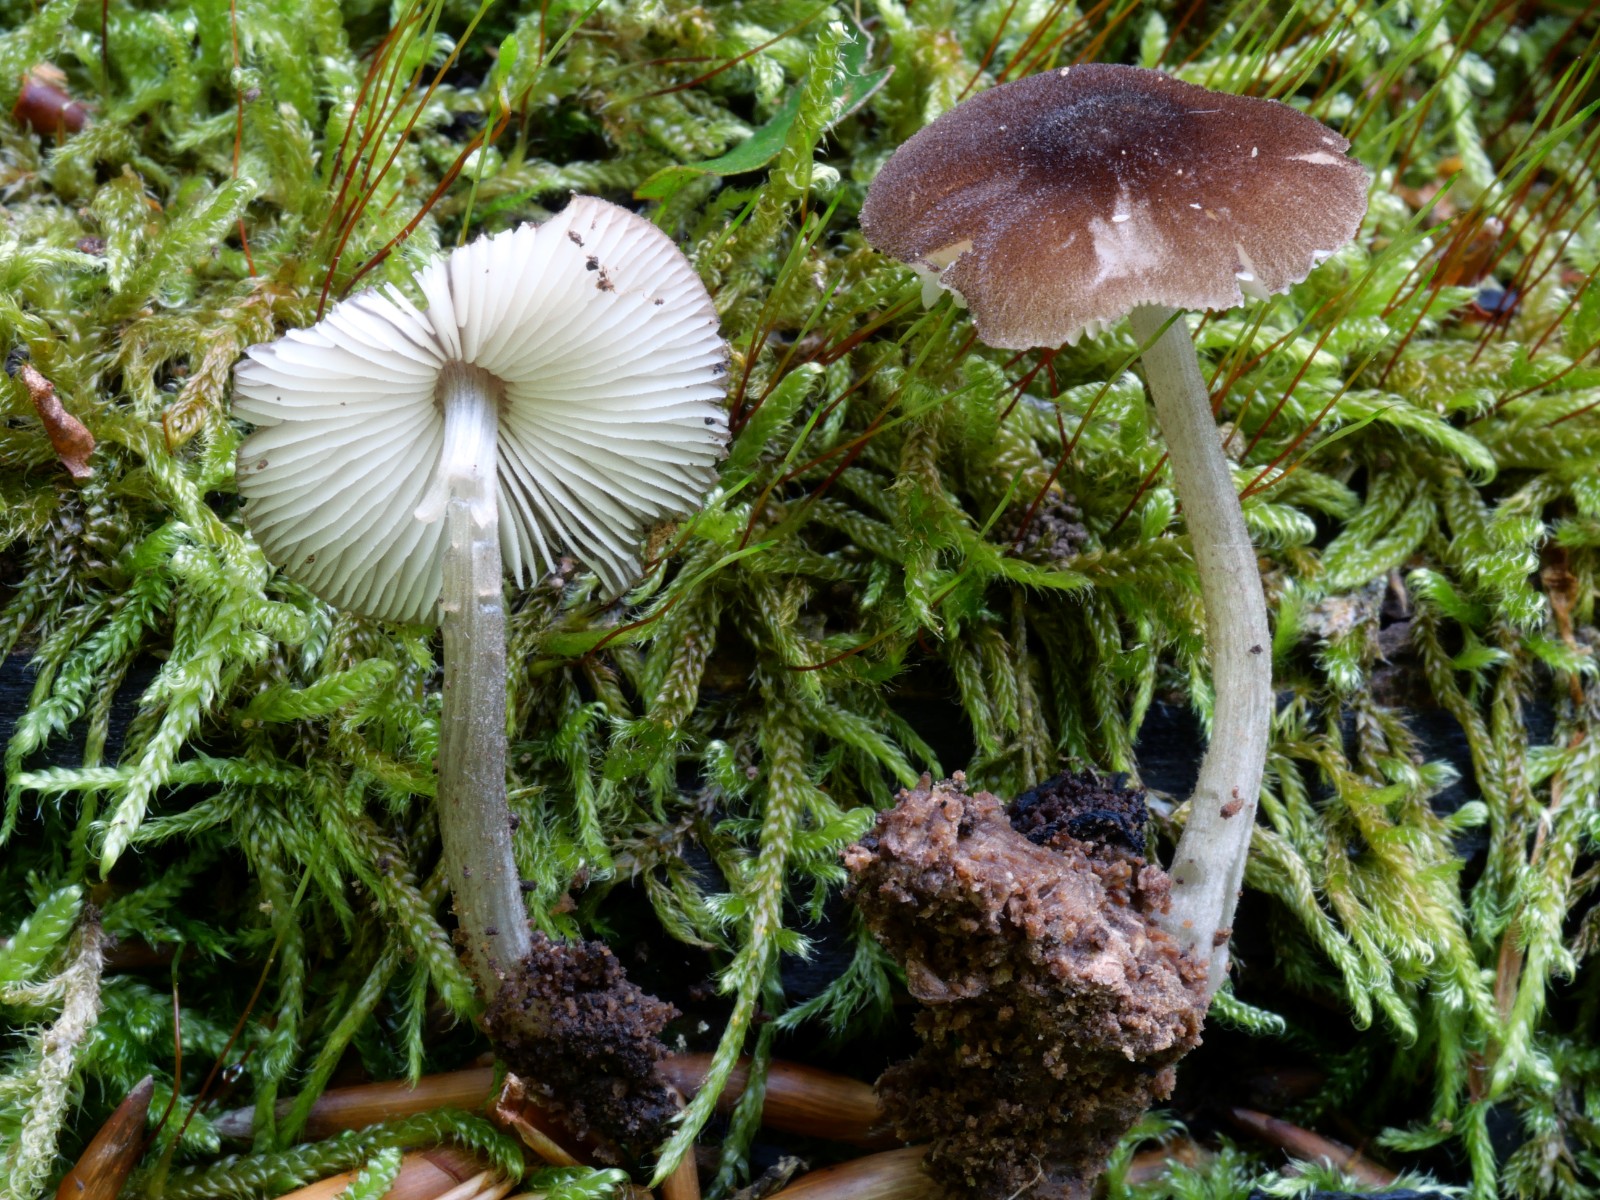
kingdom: Fungi
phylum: Basidiomycota
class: Agaricomycetes
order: Agaricales
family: Pluteaceae
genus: Pluteus
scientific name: Pluteus inflatus
